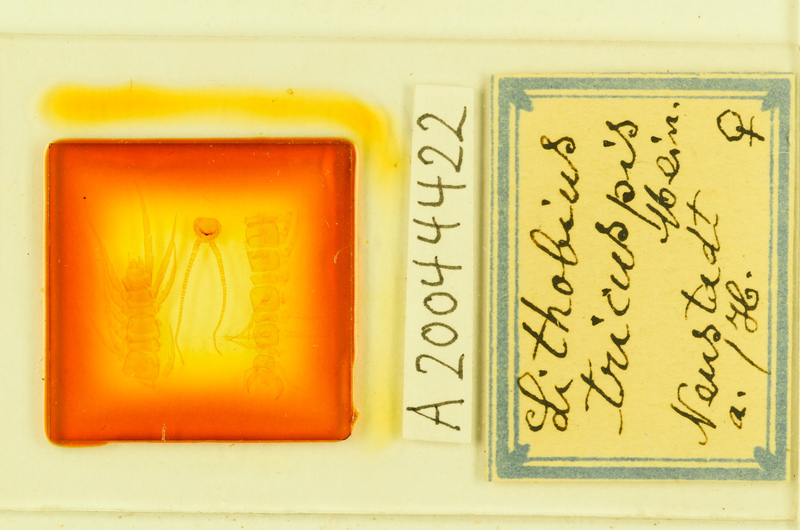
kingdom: Animalia
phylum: Arthropoda
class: Chilopoda
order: Lithobiomorpha
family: Lithobiidae
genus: Lithobius
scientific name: Lithobius tricuspis
